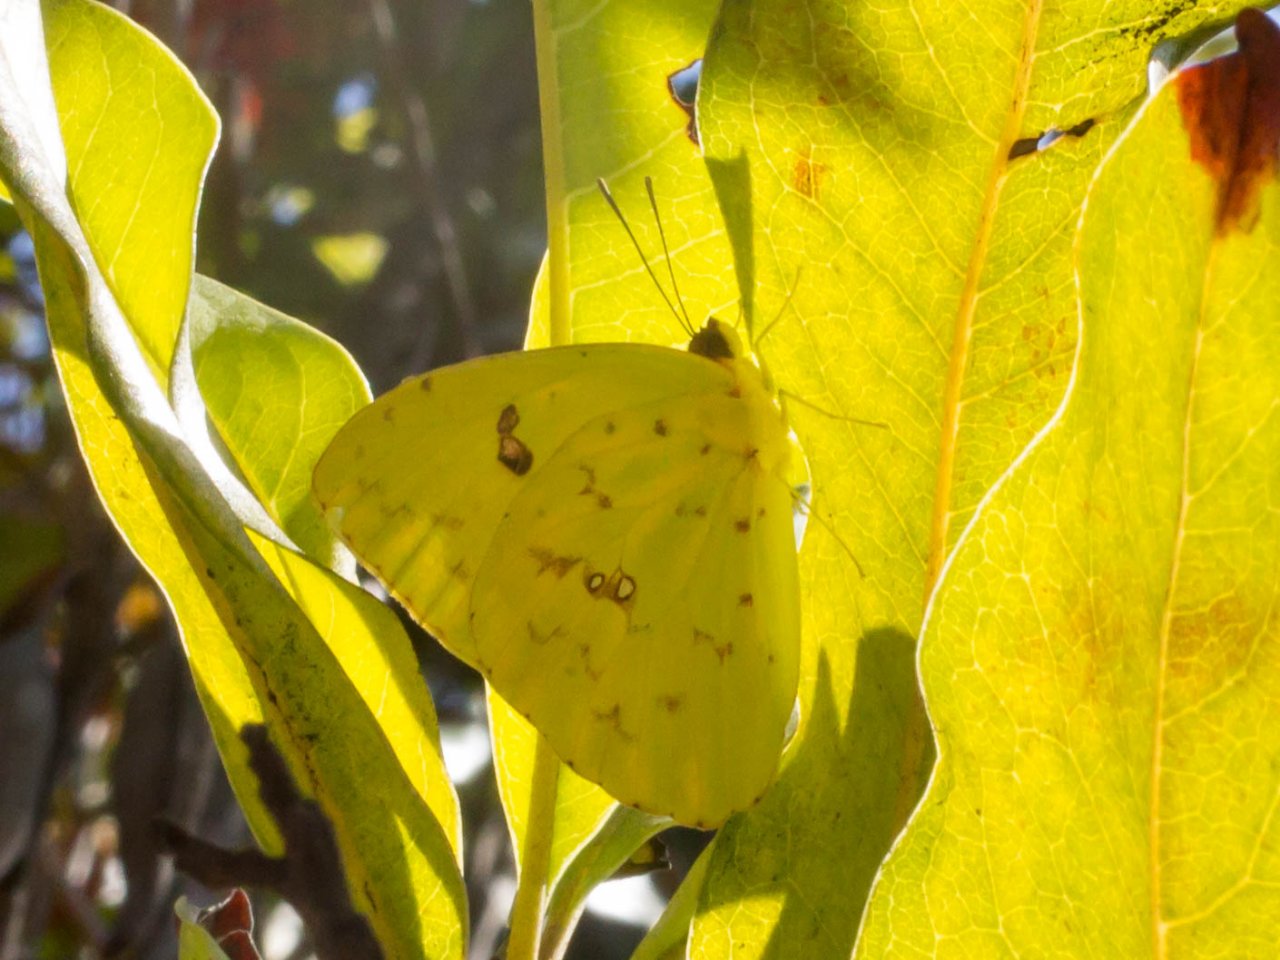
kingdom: Animalia
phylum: Arthropoda
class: Insecta
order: Lepidoptera
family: Pieridae
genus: Phoebis
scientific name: Phoebis sennae
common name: Cloudless Sulphur
